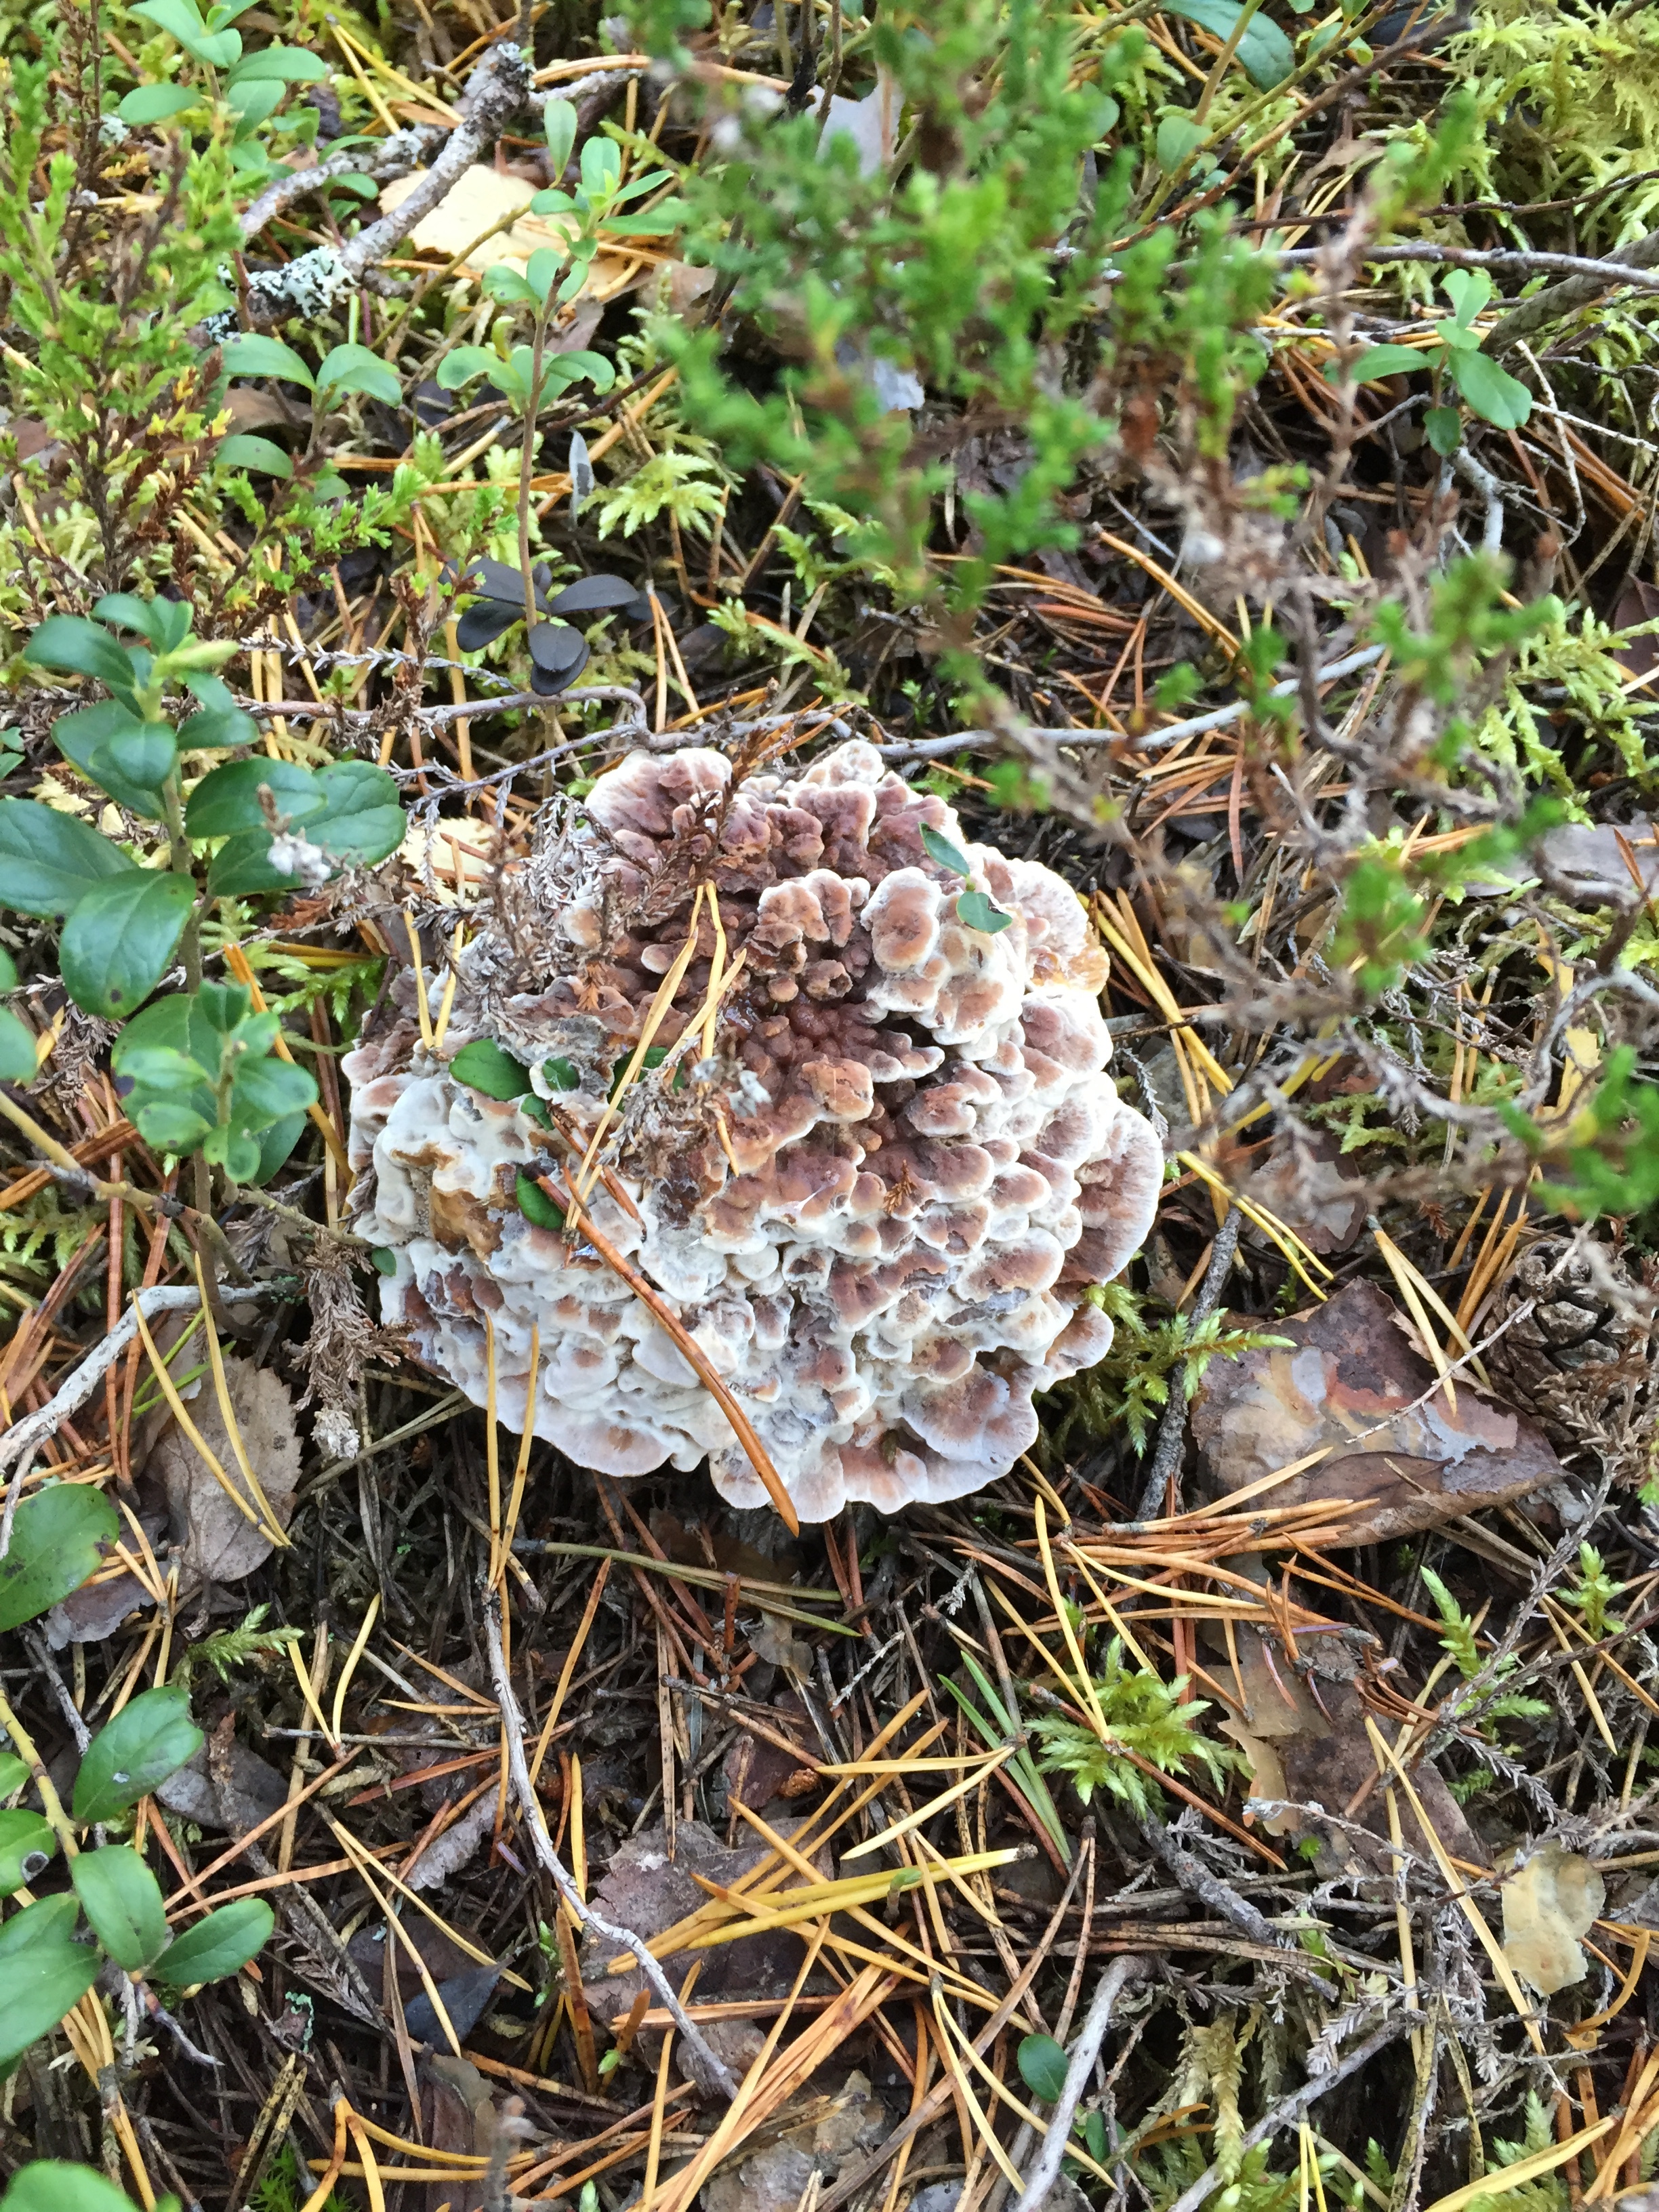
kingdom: Fungi
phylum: Basidiomycota
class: Agaricomycetes
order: Thelephorales
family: Thelephoraceae
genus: Phellodon
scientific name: Phellodon tomentosus
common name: Woolly tooth
